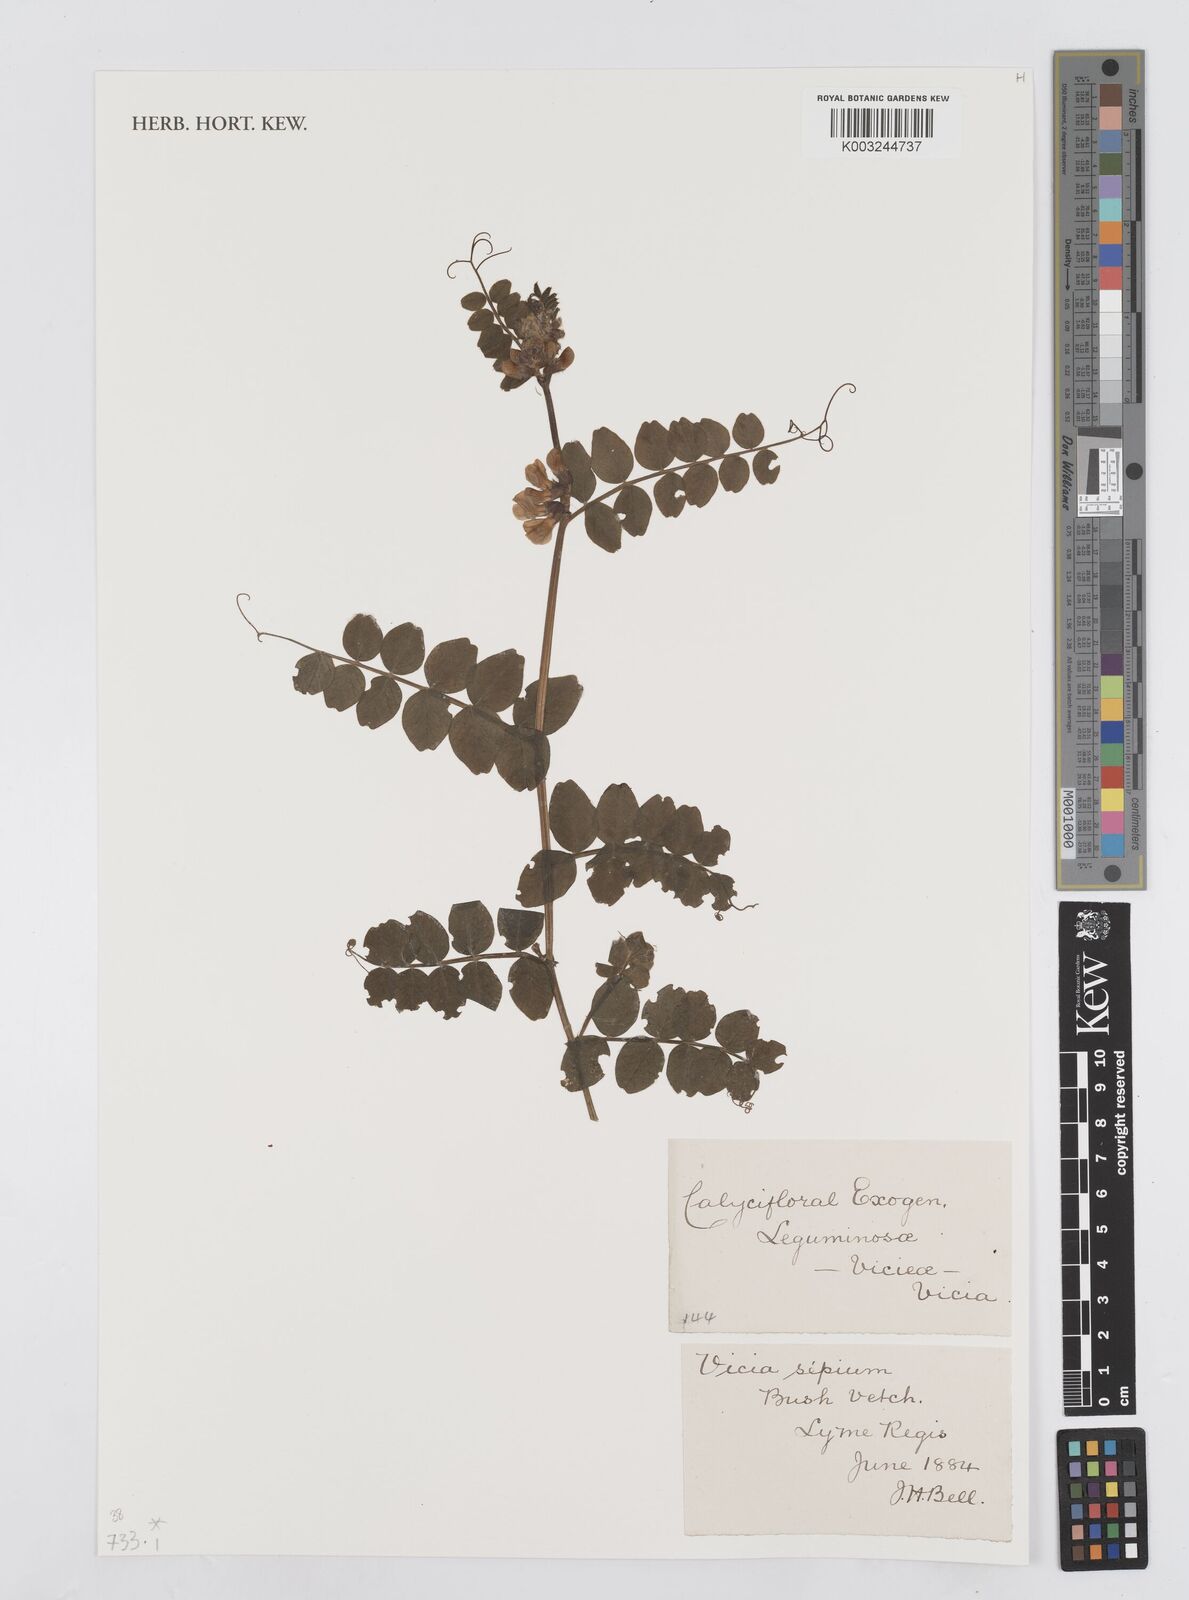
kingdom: Plantae
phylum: Tracheophyta
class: Magnoliopsida
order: Fabales
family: Fabaceae
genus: Vicia
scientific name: Vicia sepium
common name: Bush vetch
